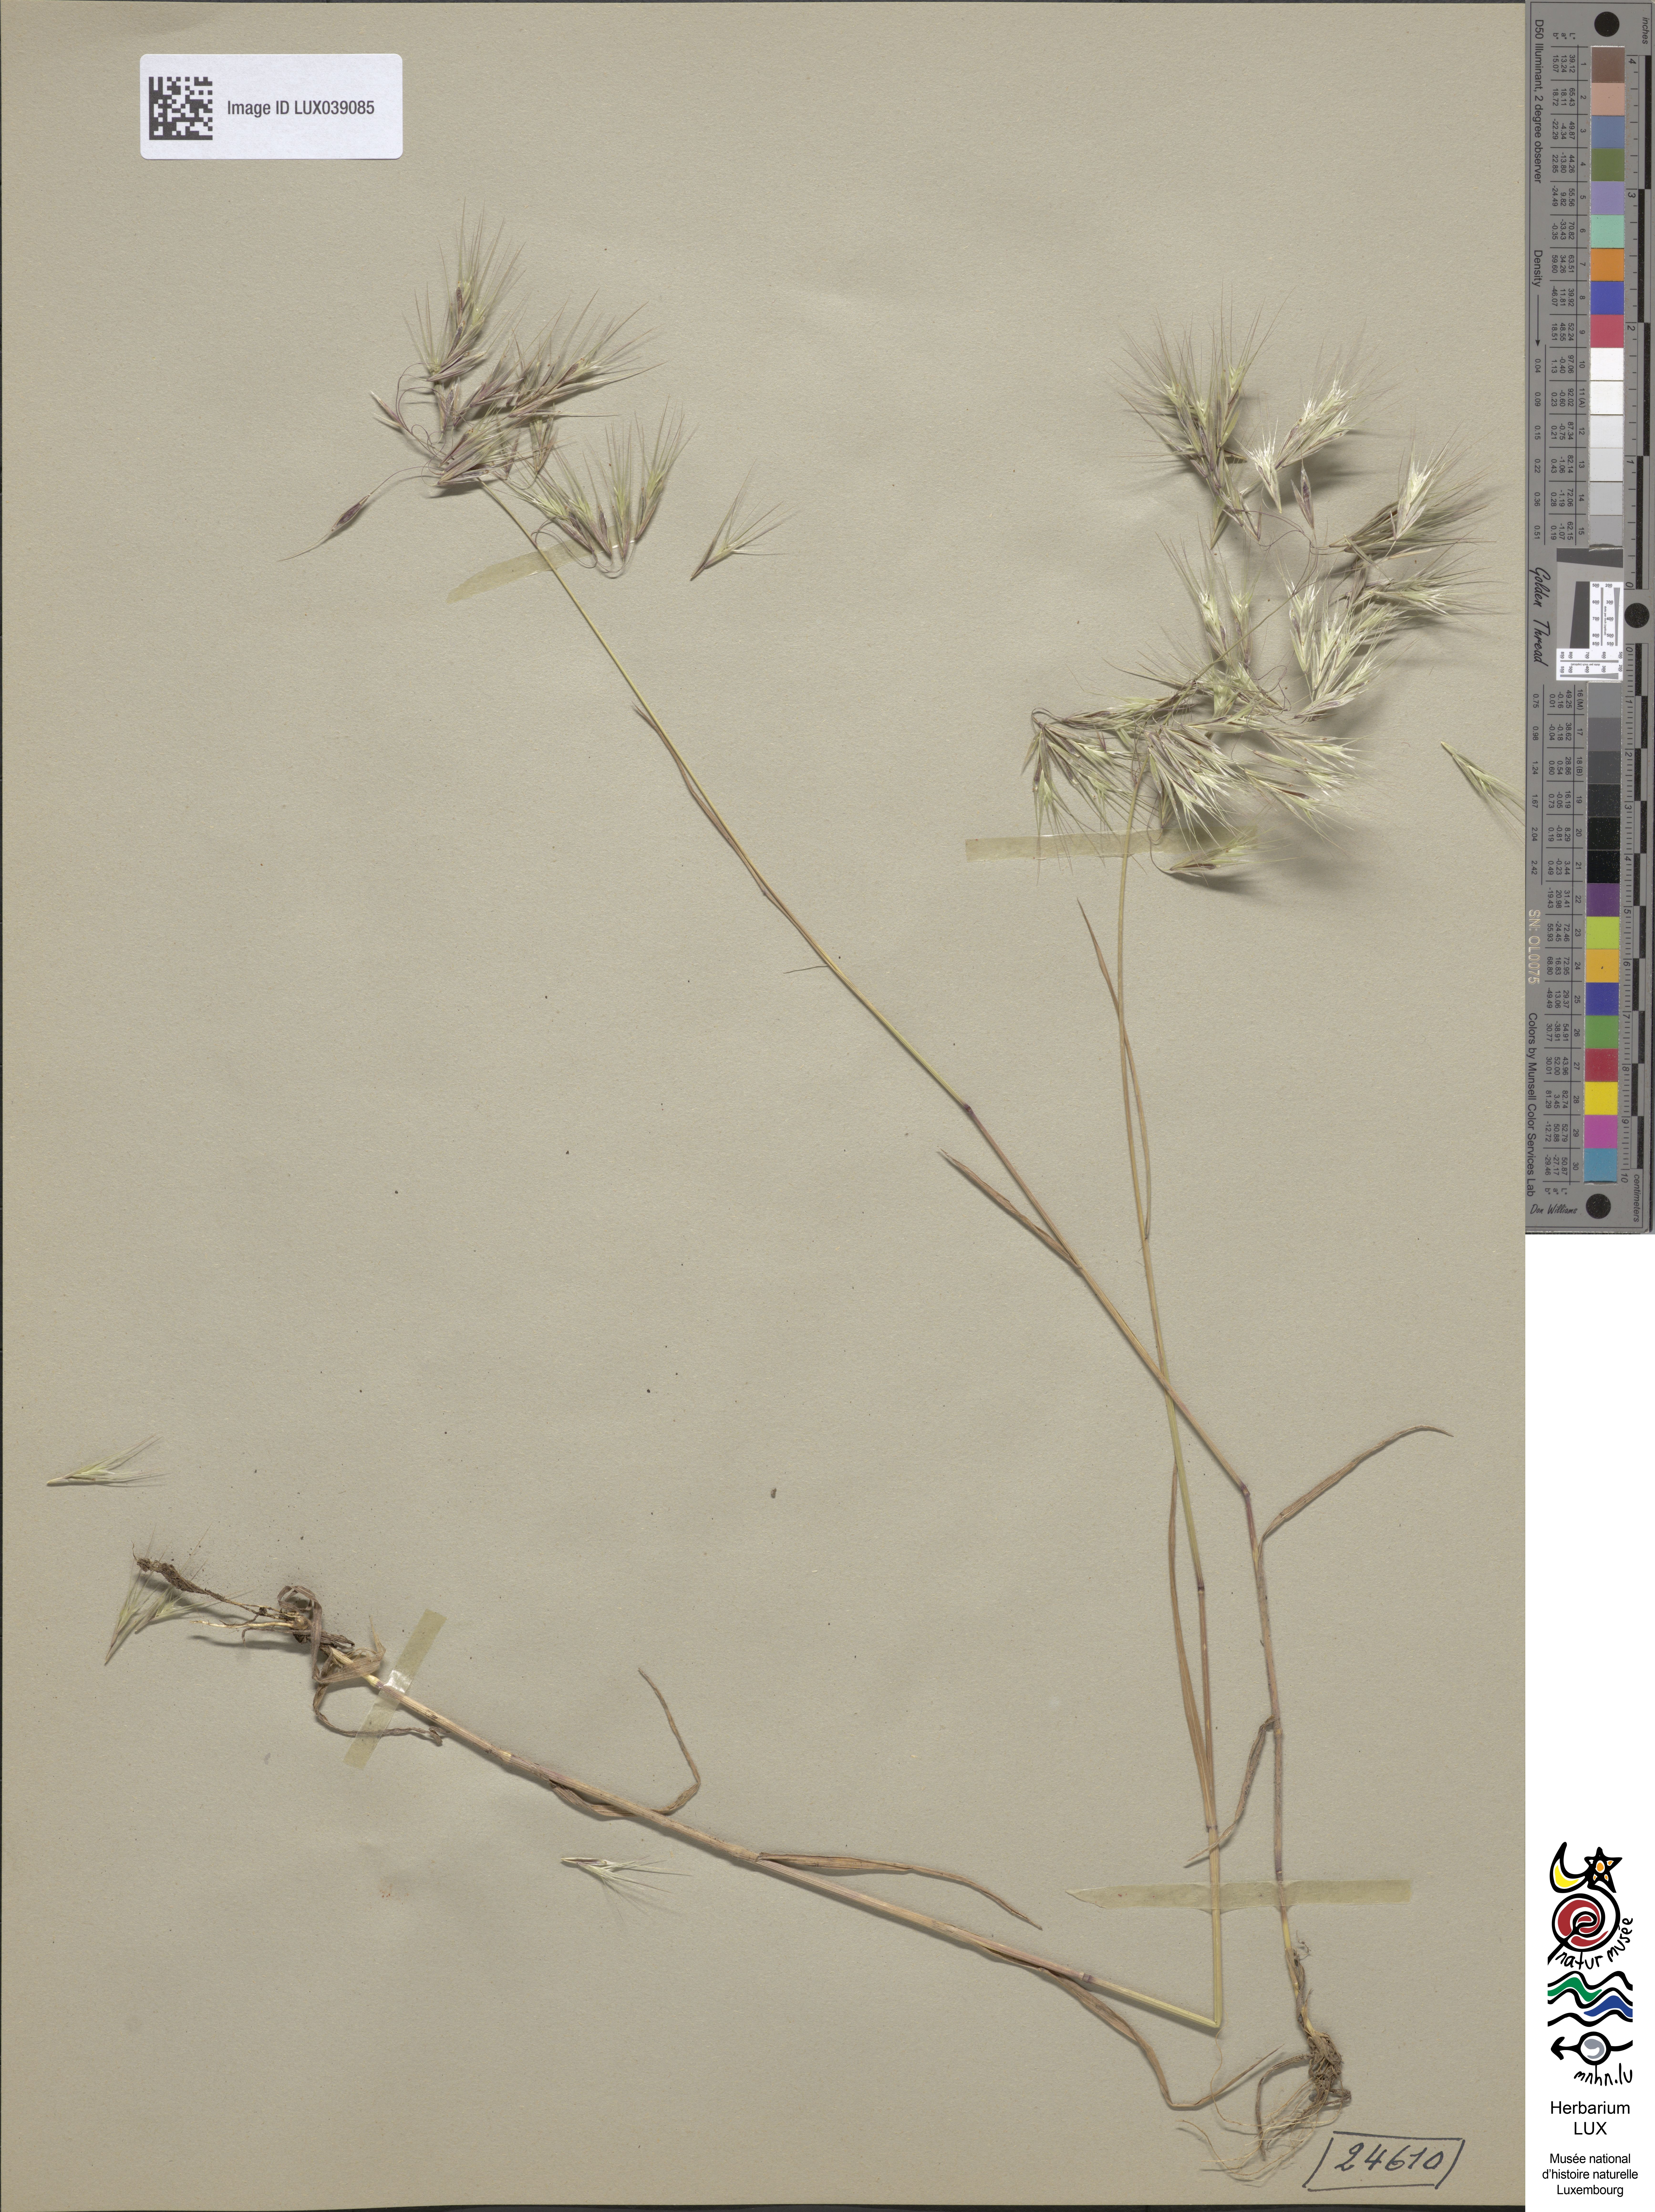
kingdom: Plantae
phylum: Tracheophyta
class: Liliopsida
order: Poales
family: Poaceae
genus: Bromus
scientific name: Bromus tectorum
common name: Cheatgrass
